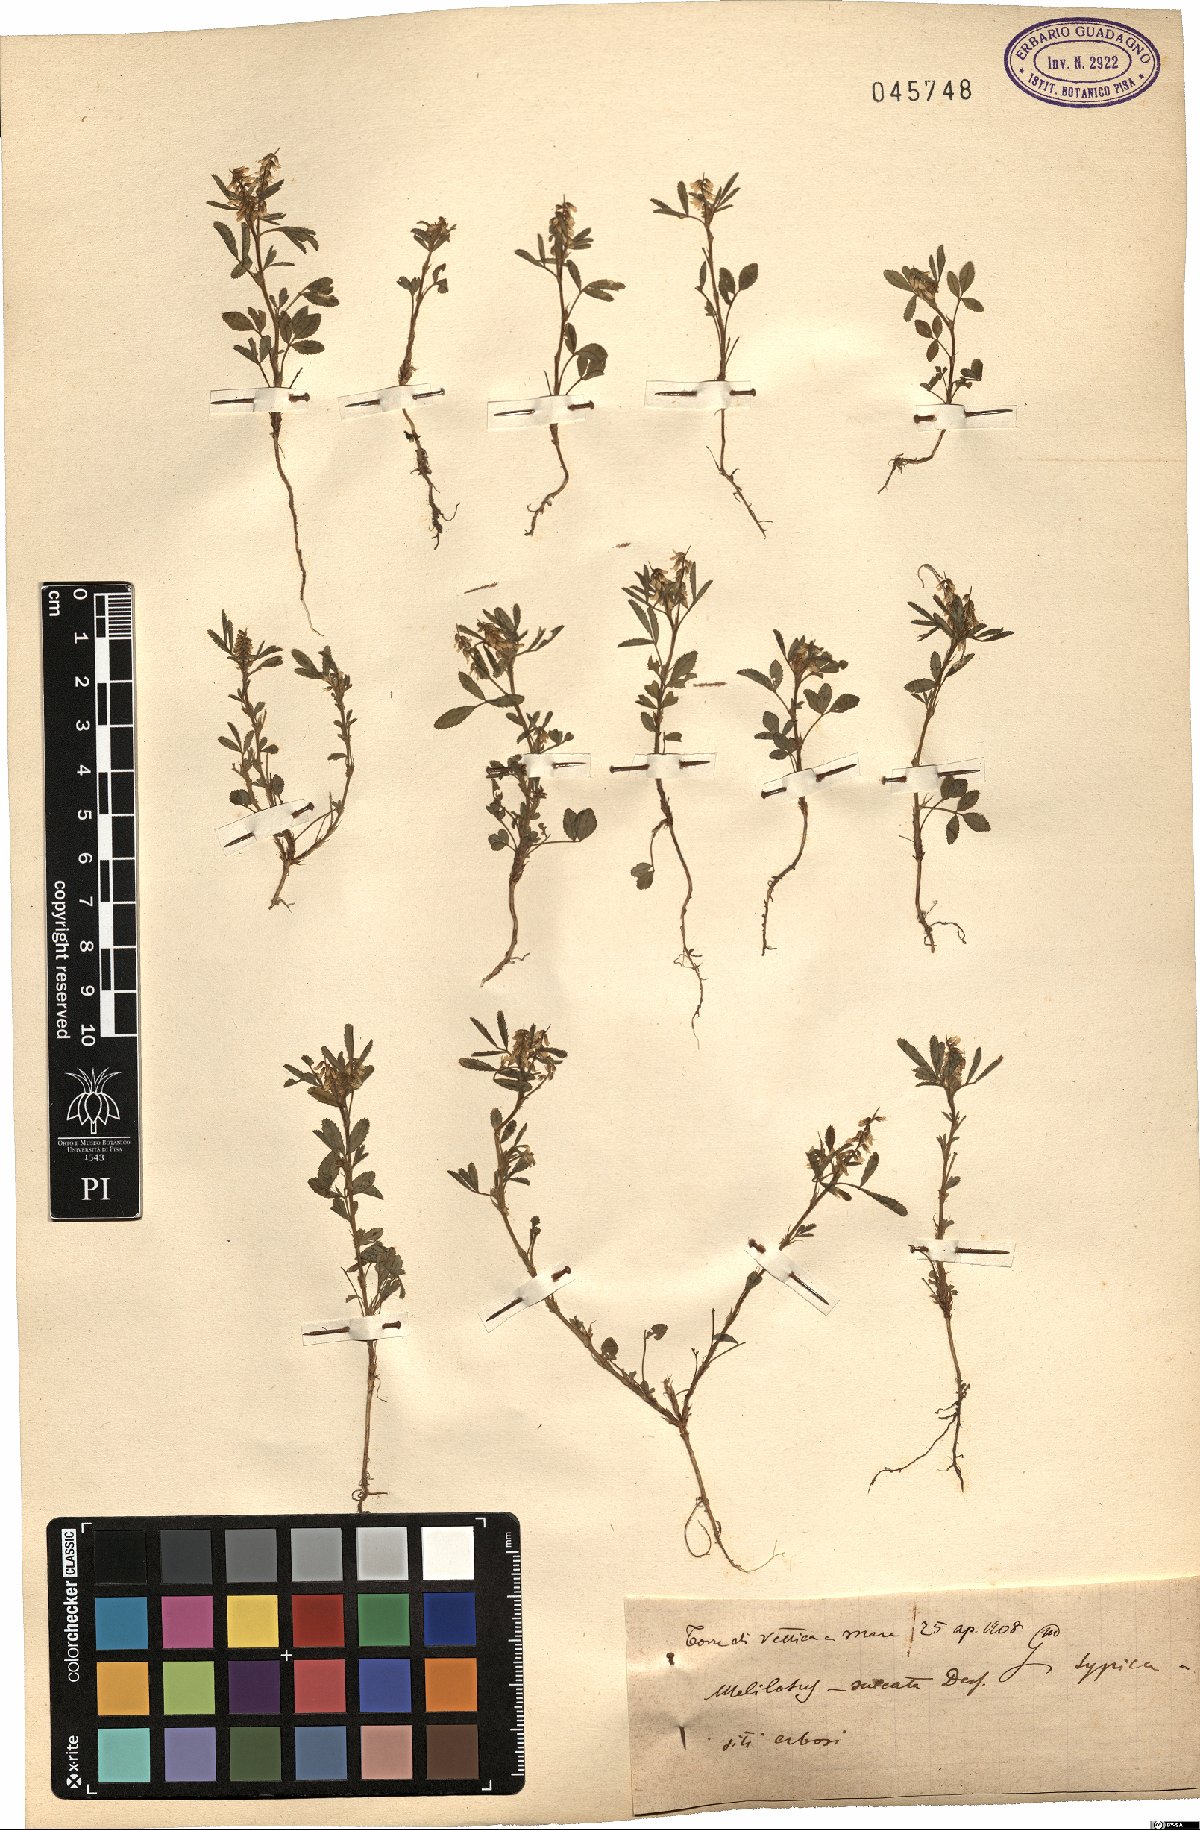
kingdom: Plantae
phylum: Tracheophyta
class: Magnoliopsida
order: Fabales
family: Fabaceae
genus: Melilotus
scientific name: Melilotus sulcatus
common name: Furrowed melilot
